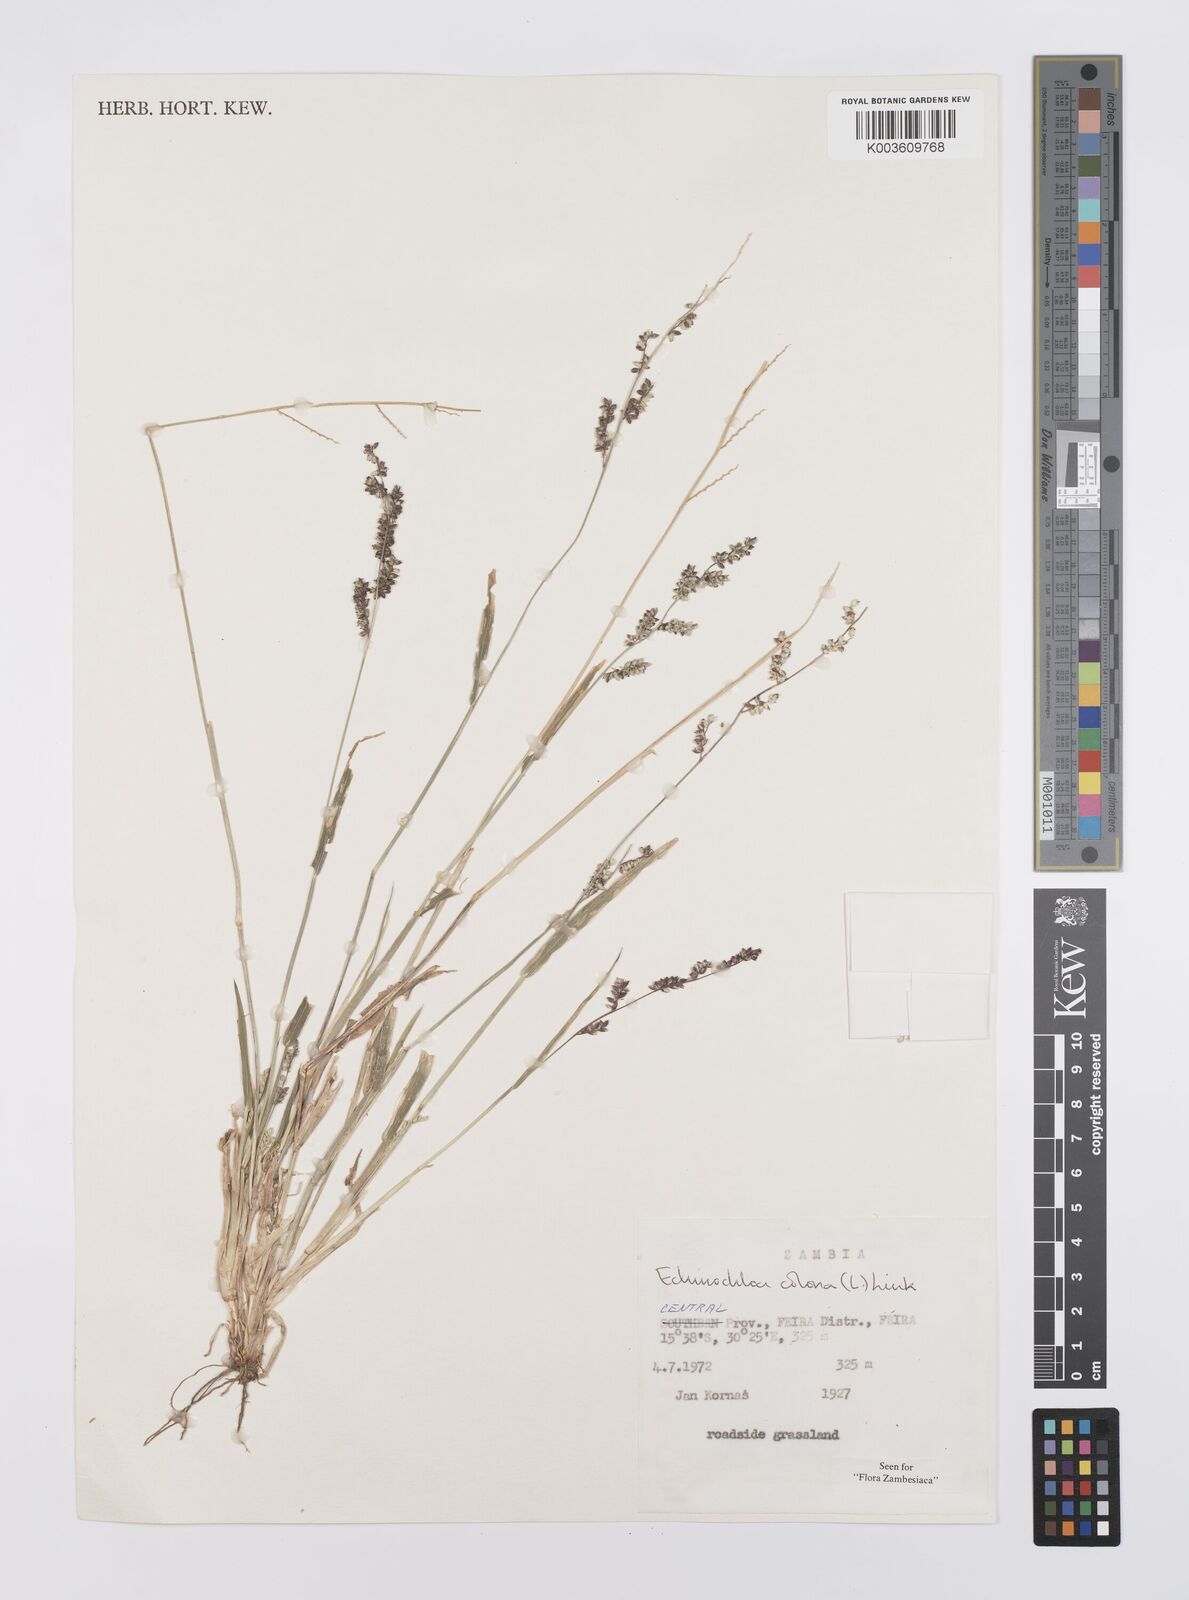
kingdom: Plantae
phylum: Tracheophyta
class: Liliopsida
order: Poales
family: Poaceae
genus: Echinochloa
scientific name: Echinochloa colonum
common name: Jungle rice
